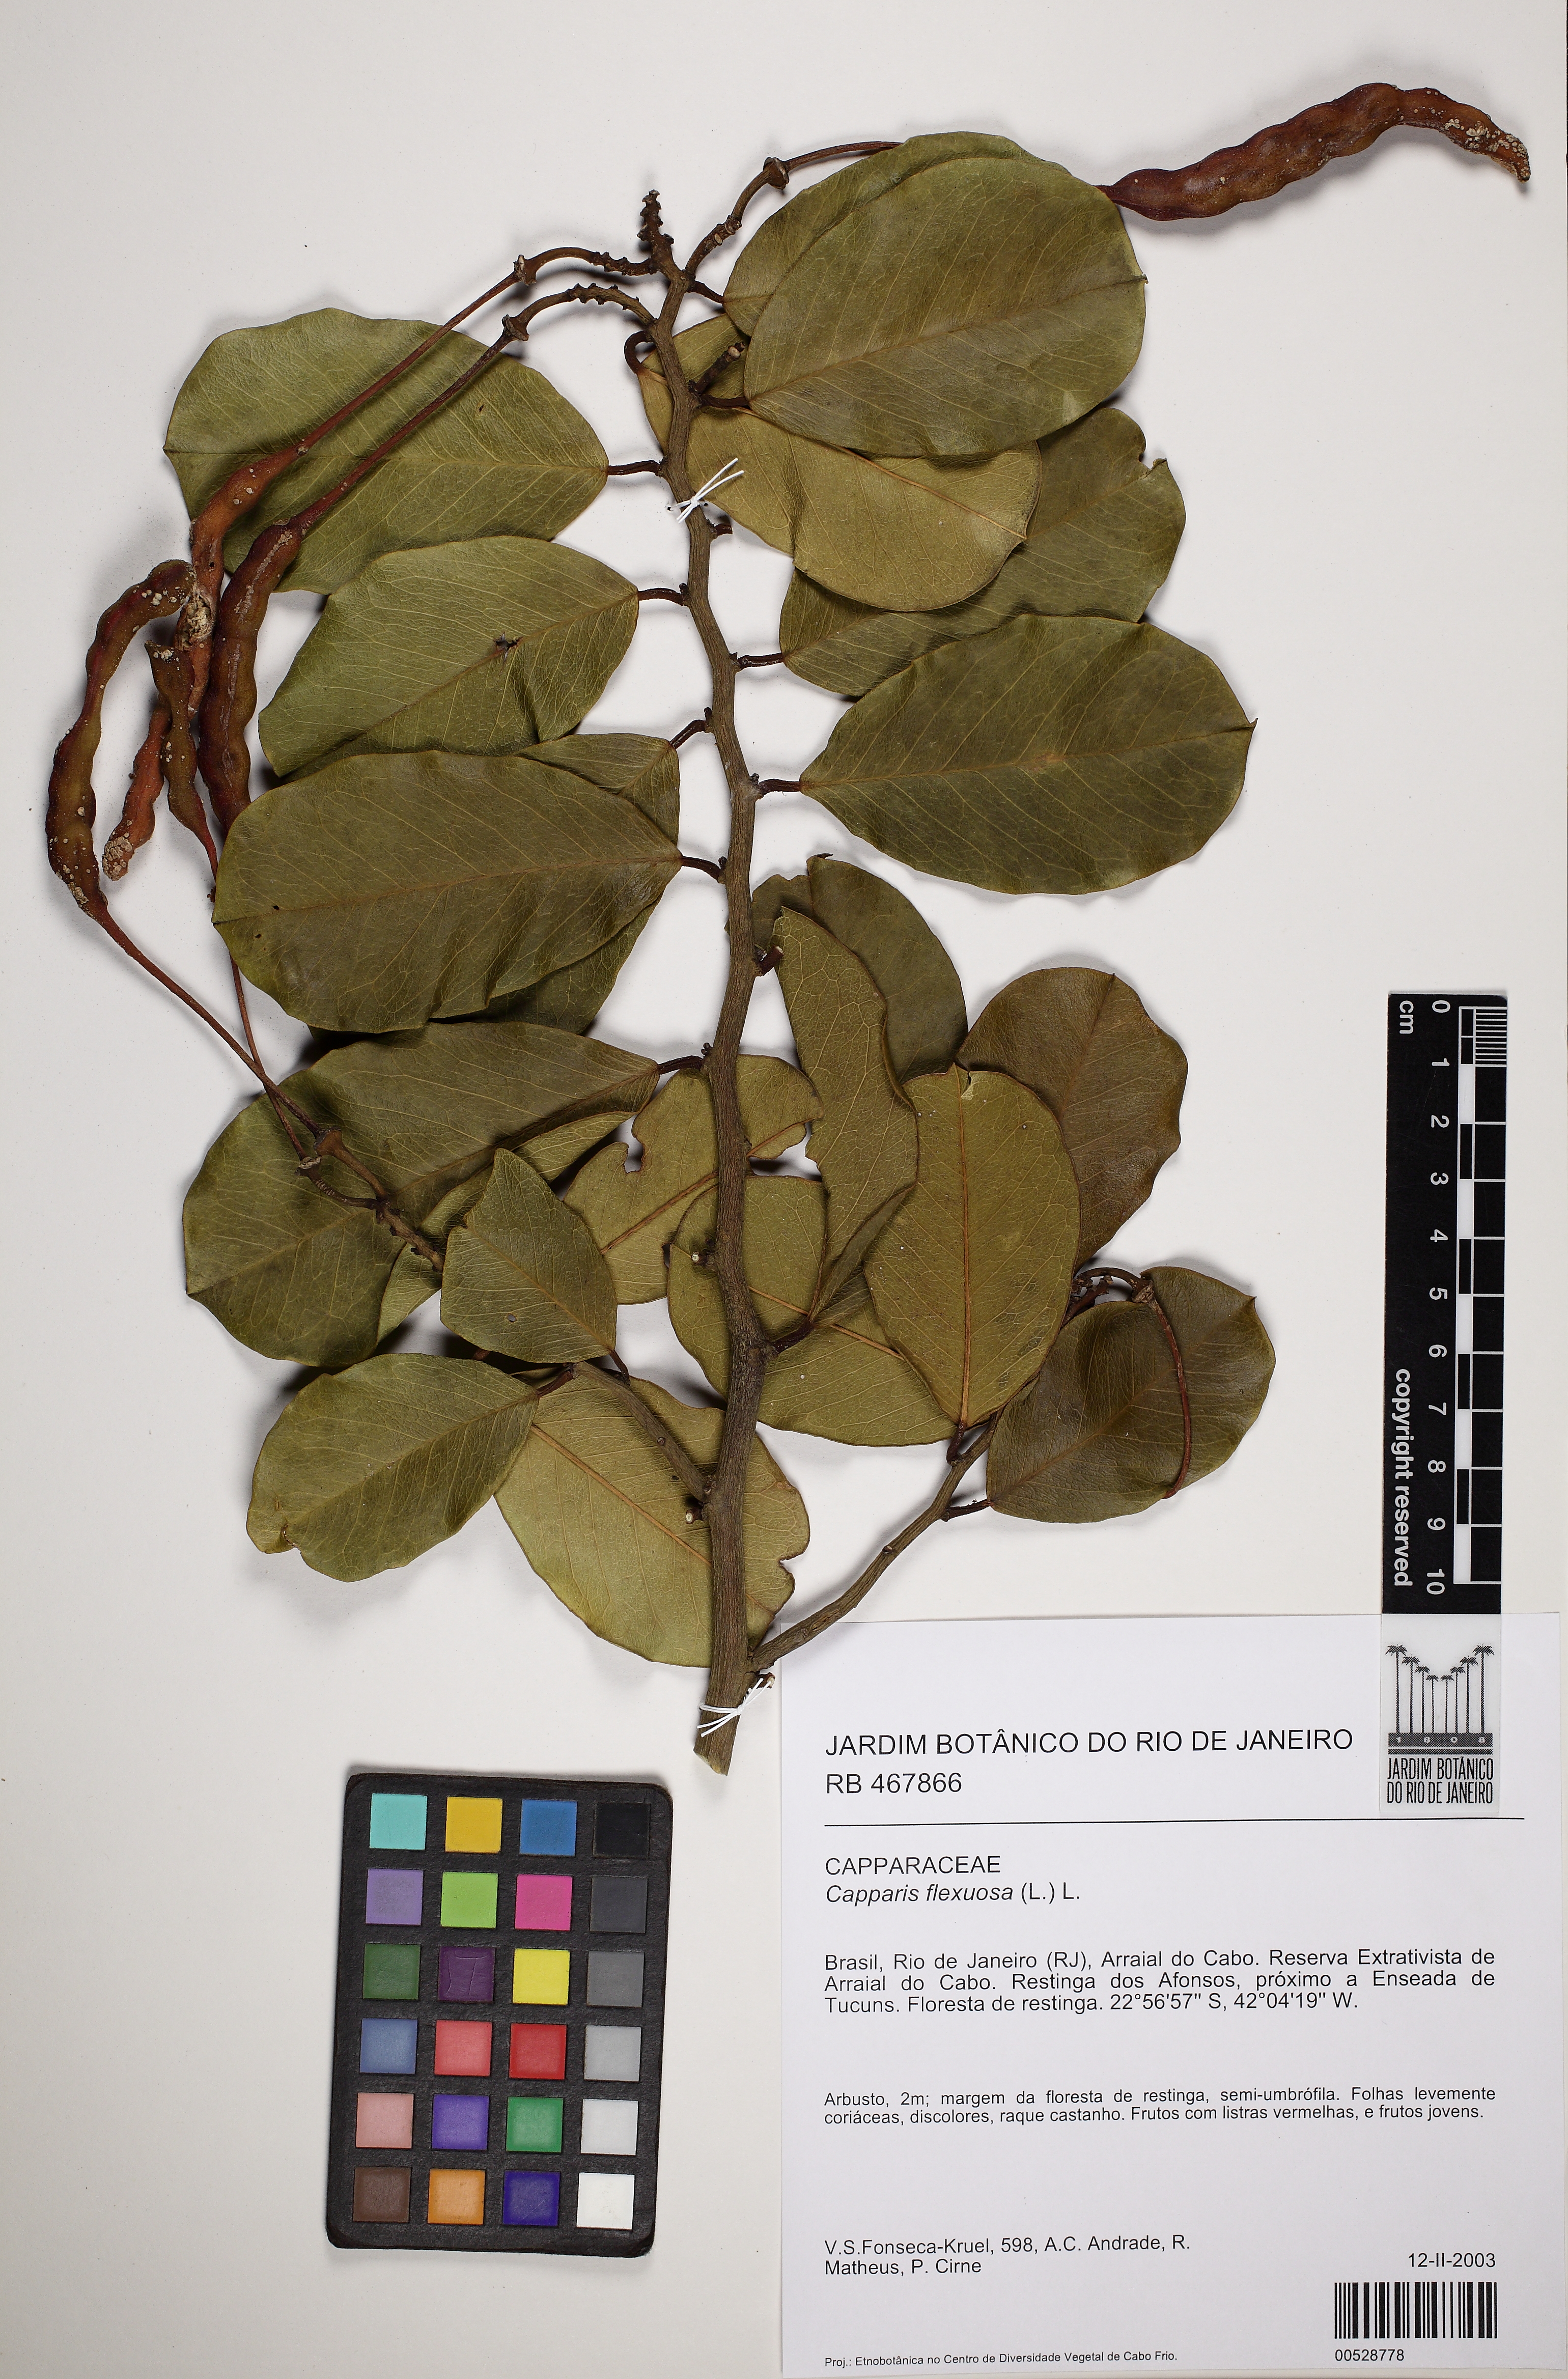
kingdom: Plantae
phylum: Tracheophyta
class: Magnoliopsida
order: Brassicales
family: Capparaceae
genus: Cynophalla
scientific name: Cynophalla flexuosa
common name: Capertree
